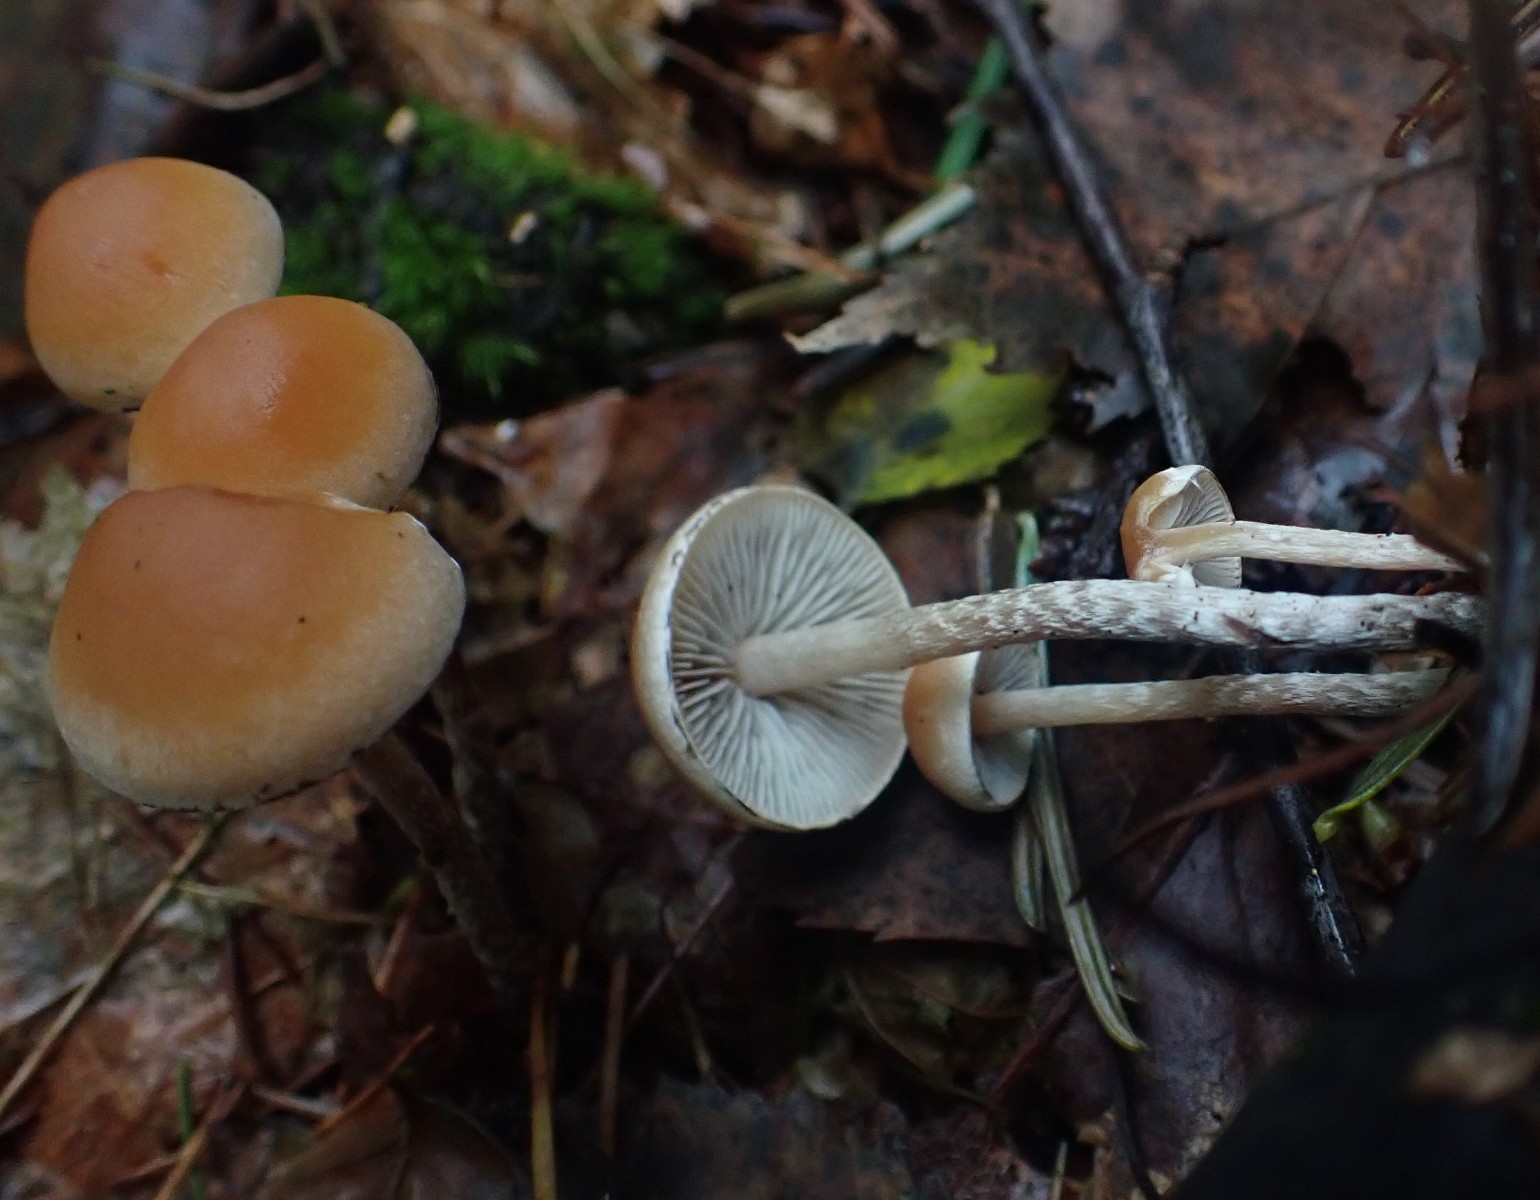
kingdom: Fungi
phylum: Basidiomycota
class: Agaricomycetes
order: Agaricales
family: Strophariaceae
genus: Hypholoma
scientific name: Hypholoma marginatum
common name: enlig svovlhat
